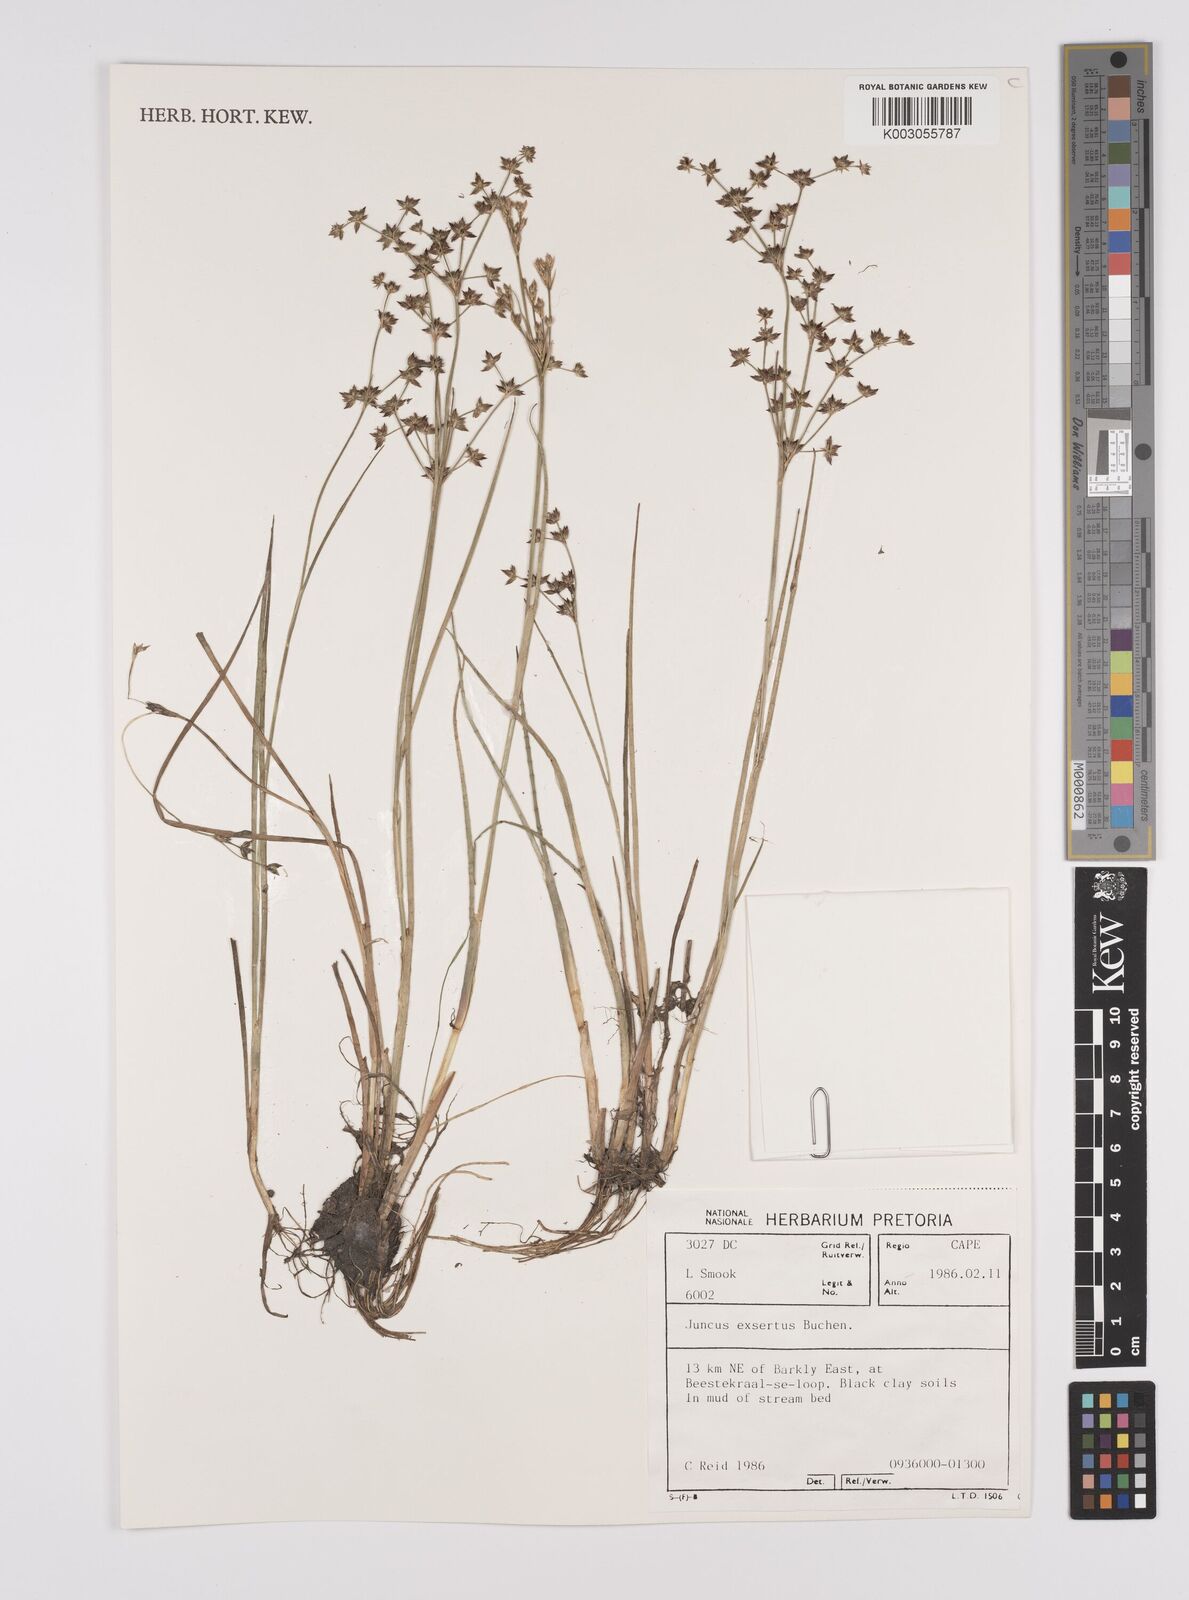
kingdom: Plantae
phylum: Tracheophyta
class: Liliopsida
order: Poales
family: Juncaceae
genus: Juncus
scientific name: Juncus exsertus
